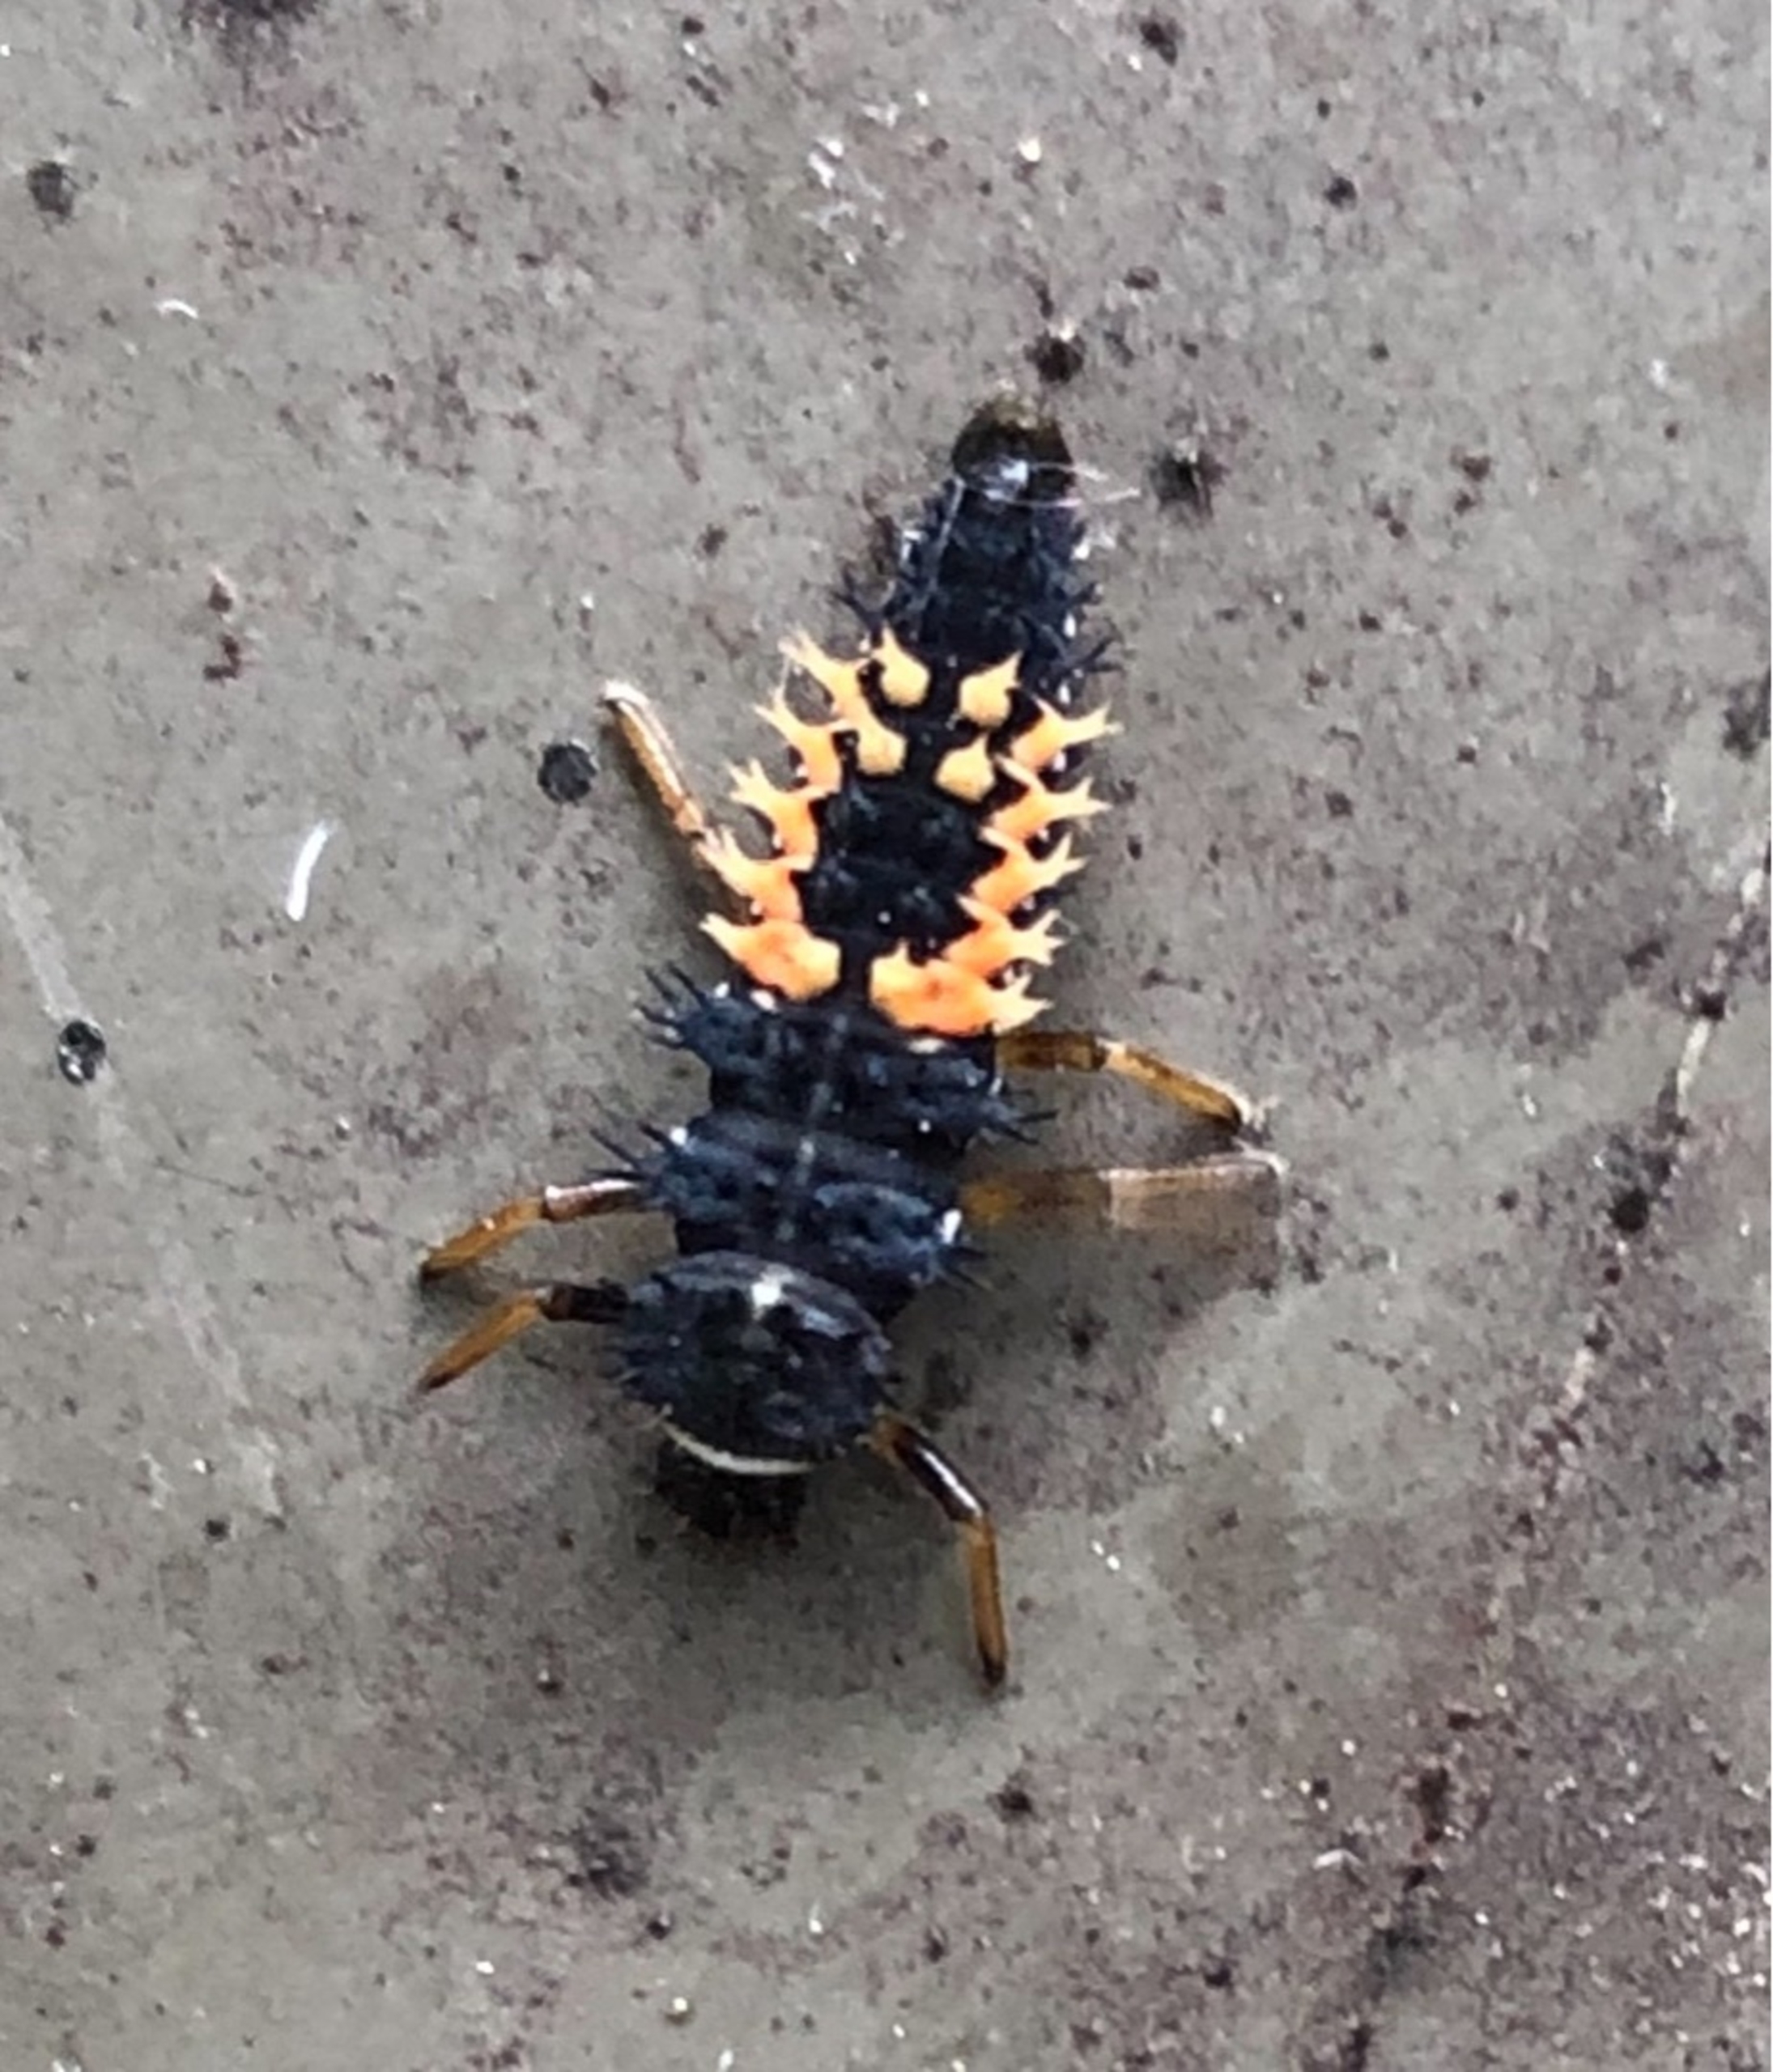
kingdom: Animalia
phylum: Arthropoda
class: Insecta
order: Coleoptera
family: Coccinellidae
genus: Harmonia
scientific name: Harmonia axyridis
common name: Harlekinmariehøne
